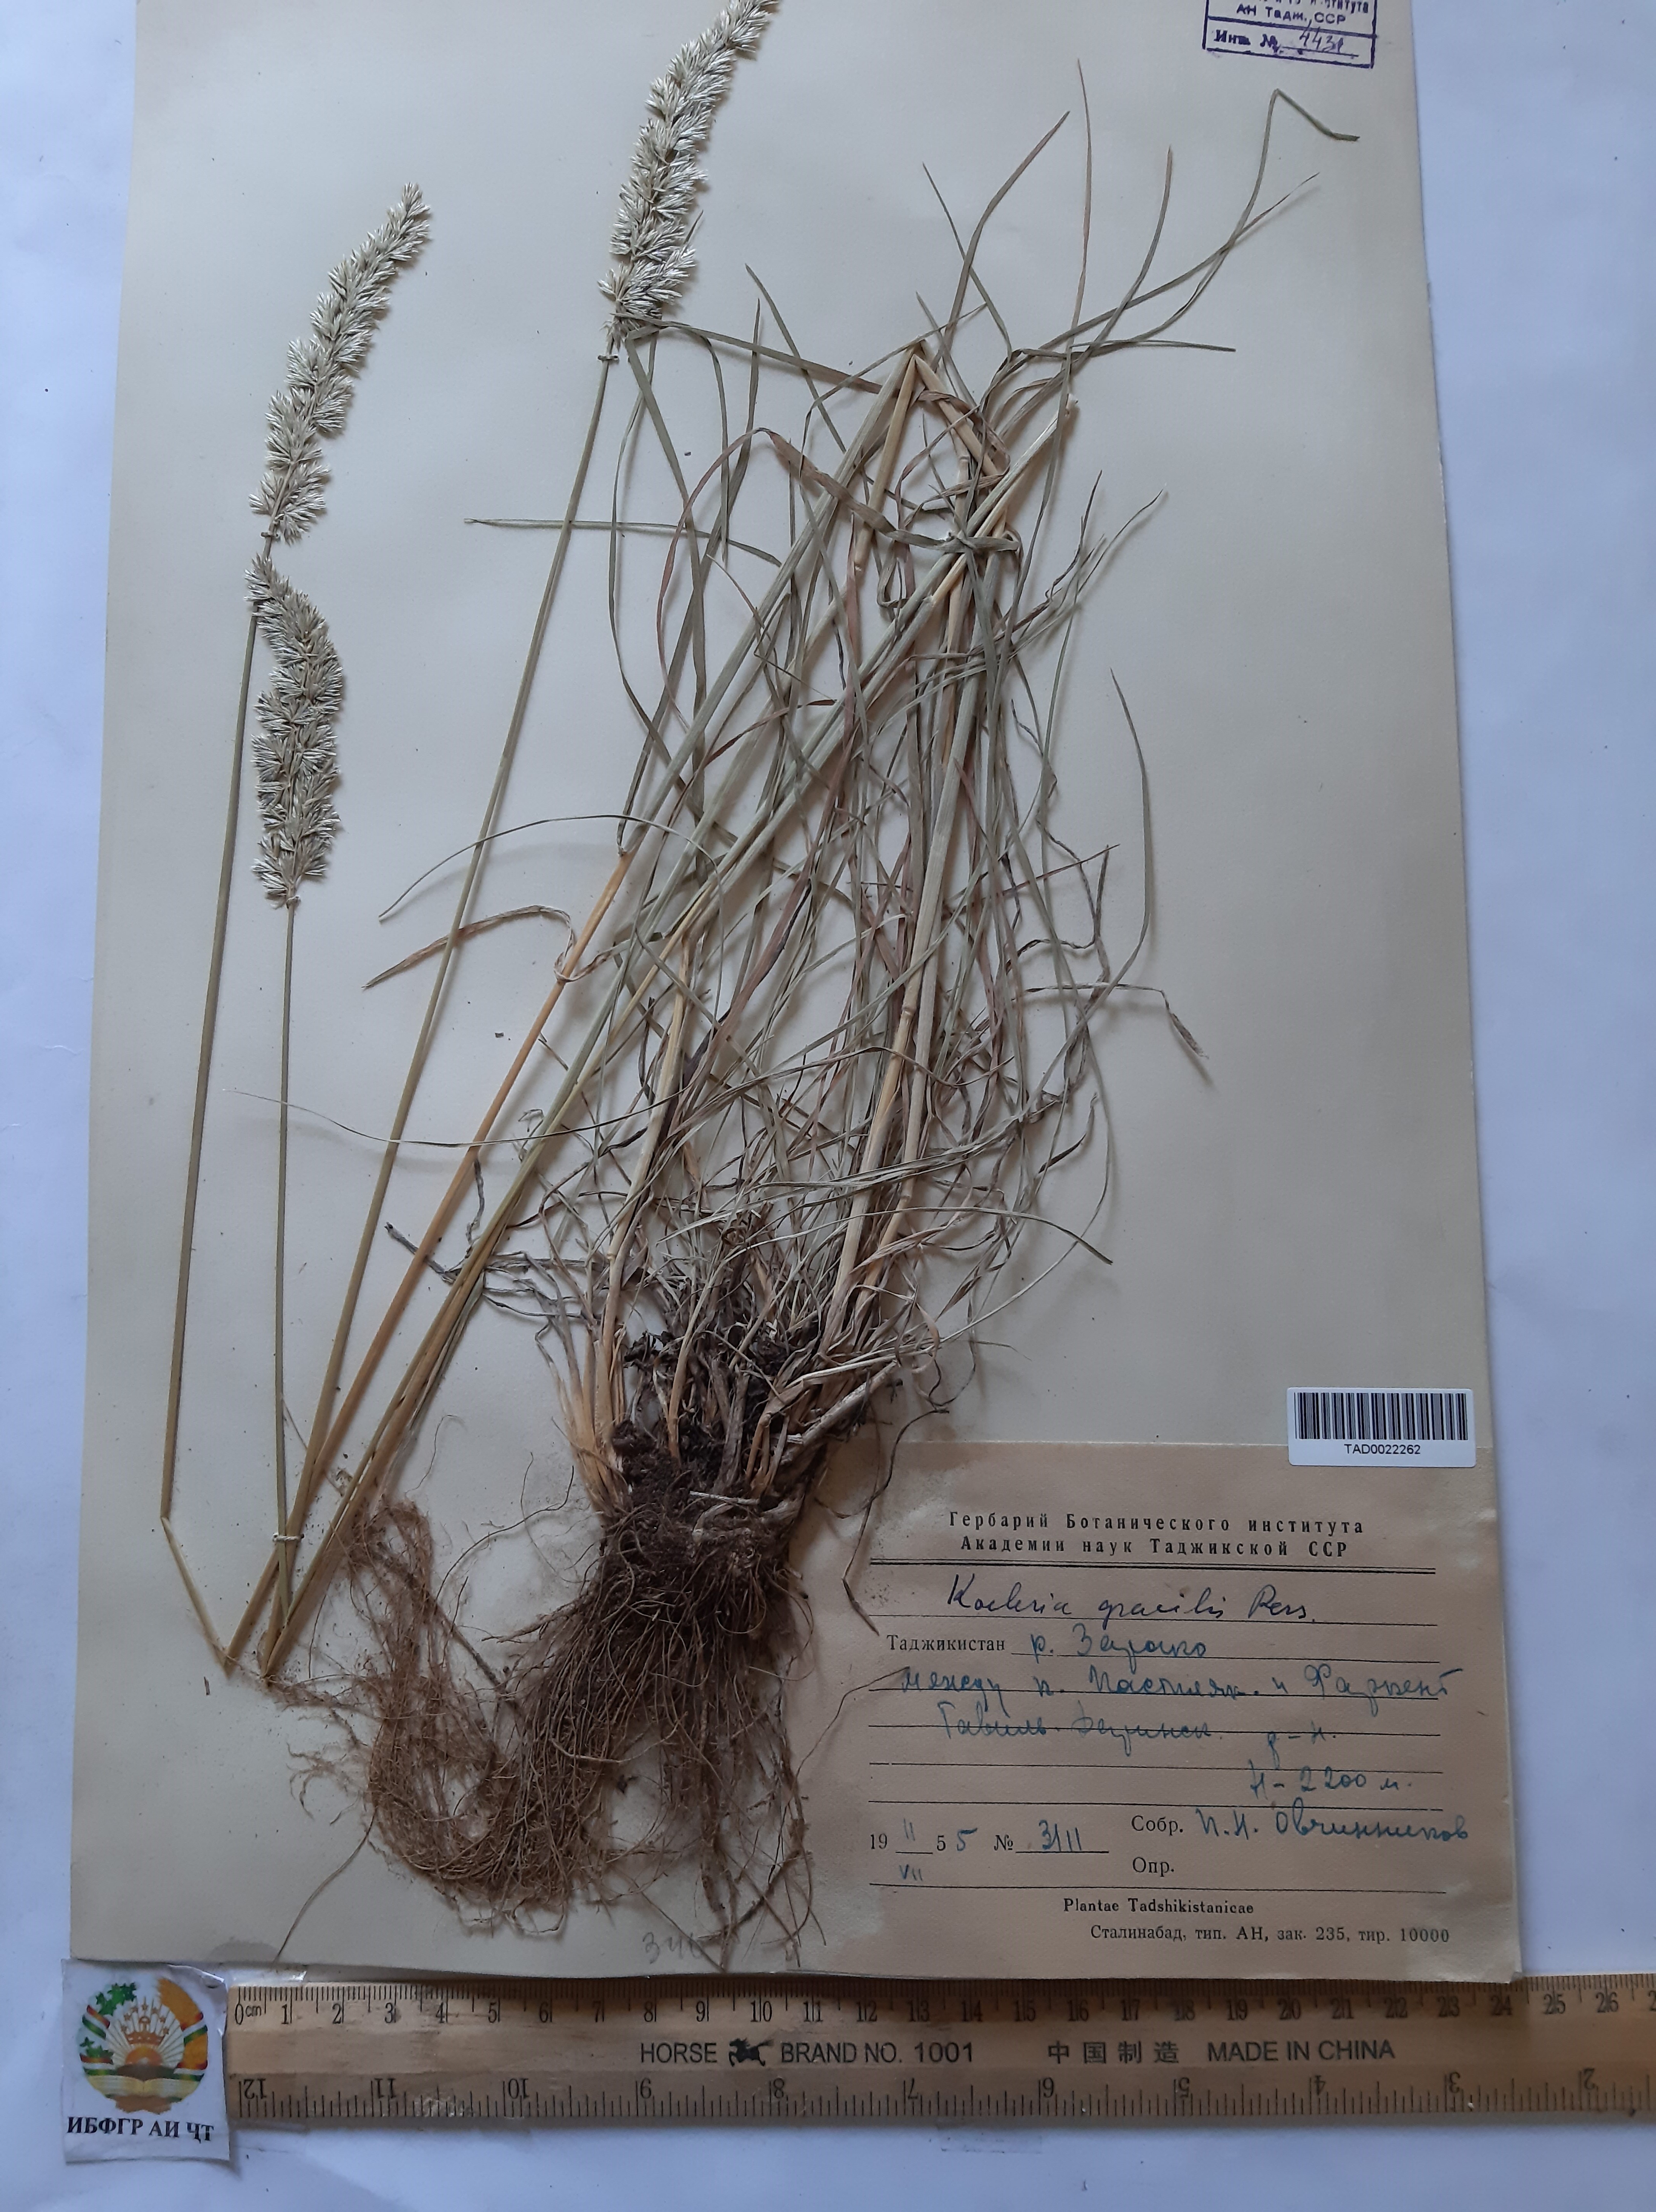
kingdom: Plantae
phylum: Tracheophyta
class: Liliopsida
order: Poales
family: Poaceae
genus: Koeleria
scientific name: Koeleria macrantha
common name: Crested hair-grass
